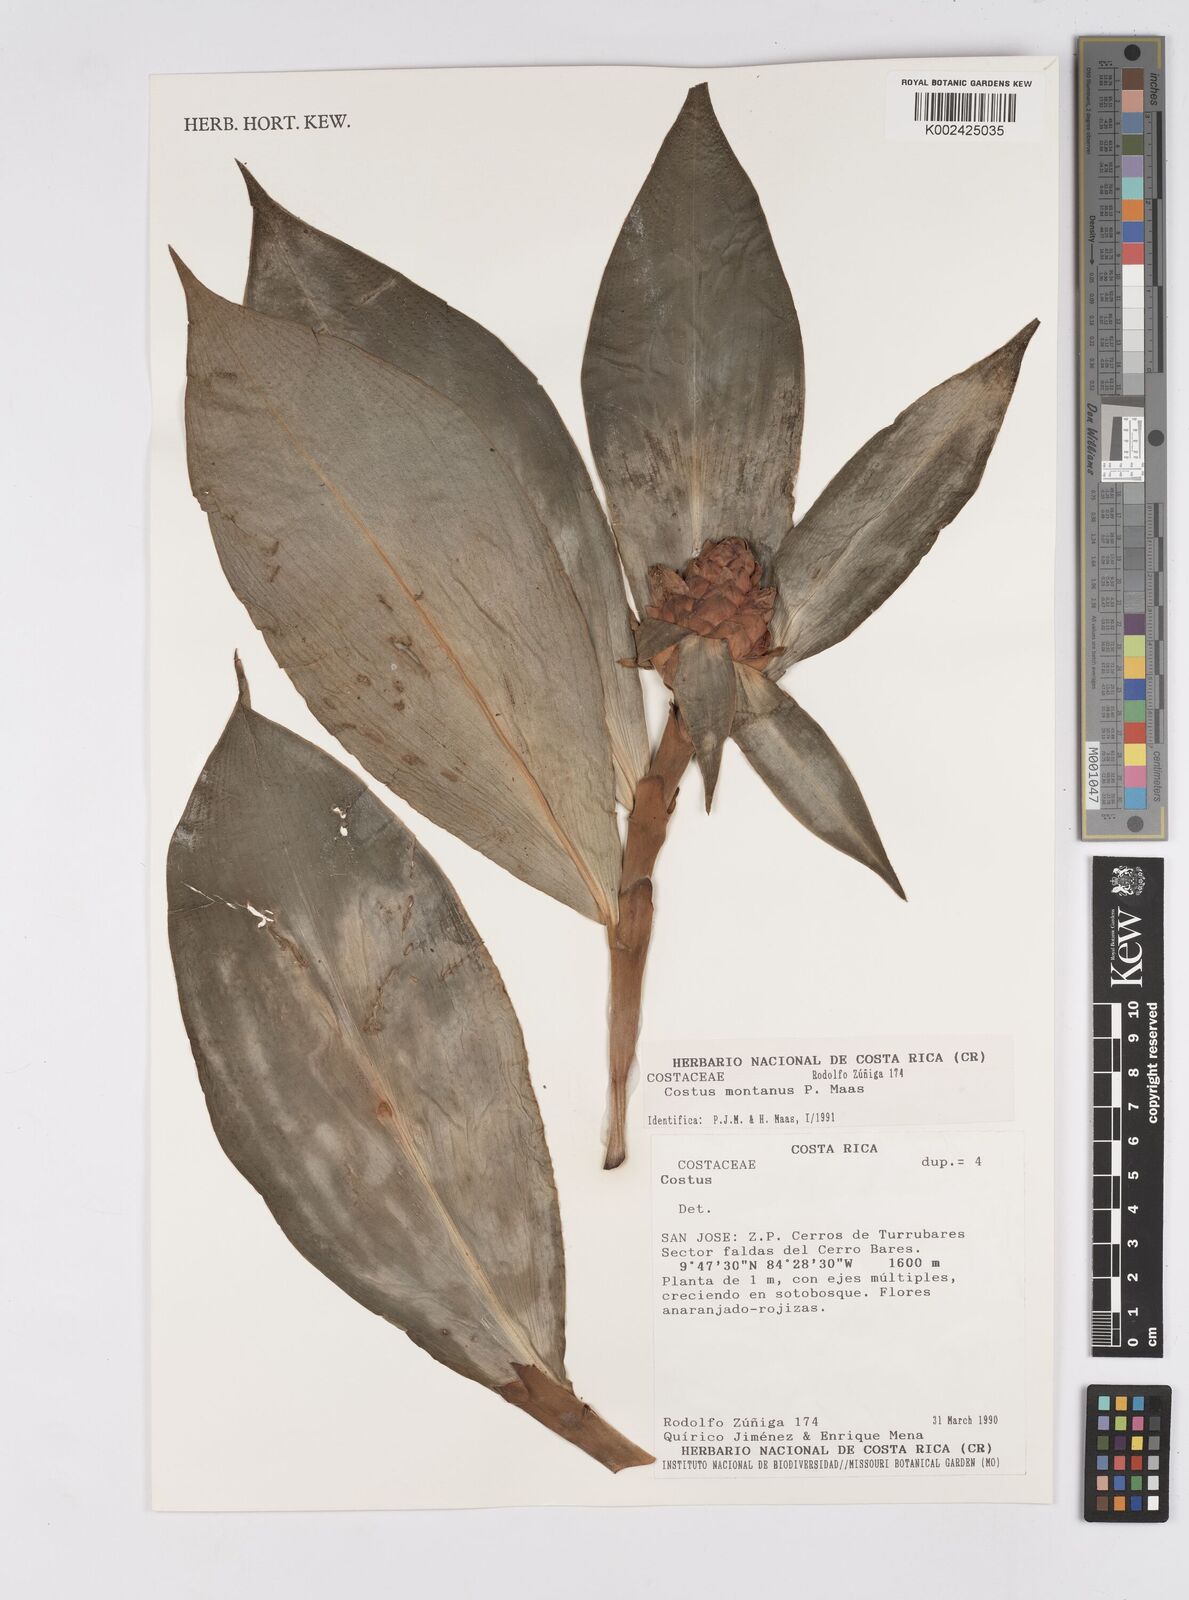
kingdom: Plantae
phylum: Tracheophyta
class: Liliopsida
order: Zingiberales
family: Costaceae
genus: Costus
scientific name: Costus montanus
